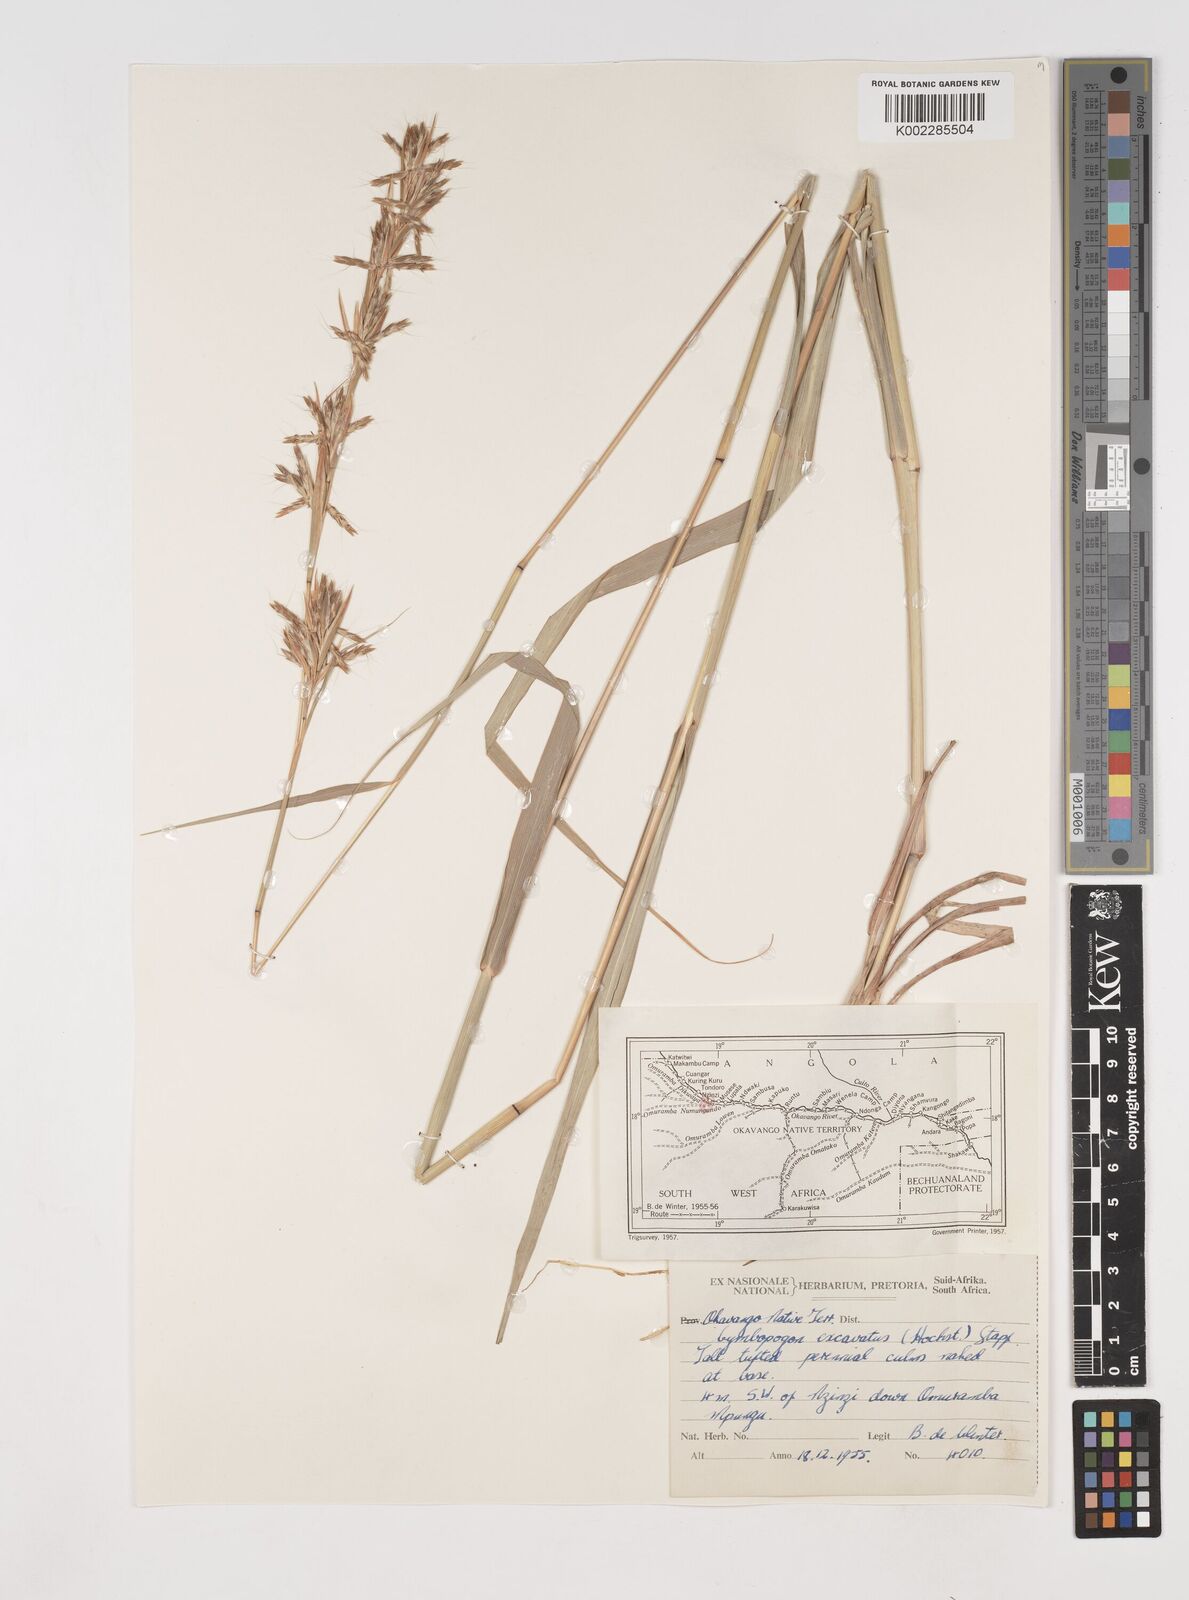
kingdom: Plantae
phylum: Tracheophyta
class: Liliopsida
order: Poales
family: Poaceae
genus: Cymbopogon
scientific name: Cymbopogon caesius
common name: Kachi grass
